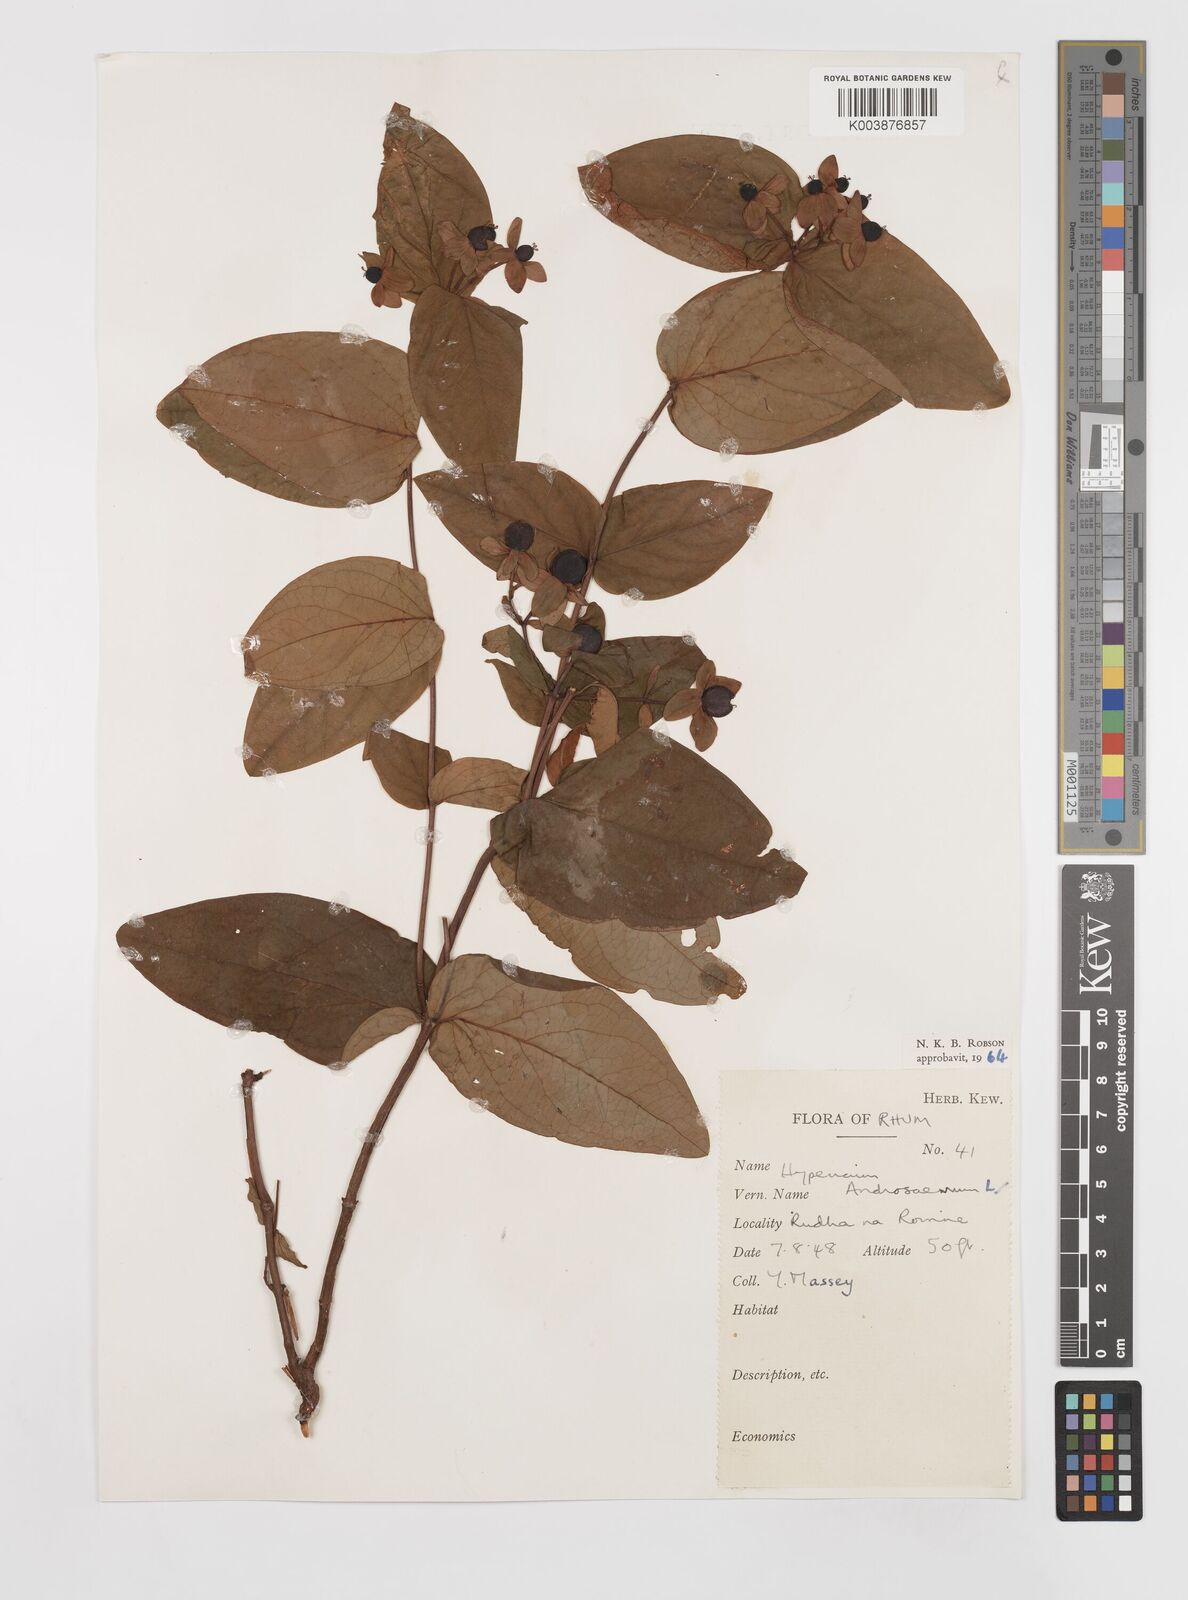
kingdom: Plantae
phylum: Tracheophyta
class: Magnoliopsida
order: Malpighiales
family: Hypericaceae
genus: Hypericum
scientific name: Hypericum androsaemum
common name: Sweet-amber
